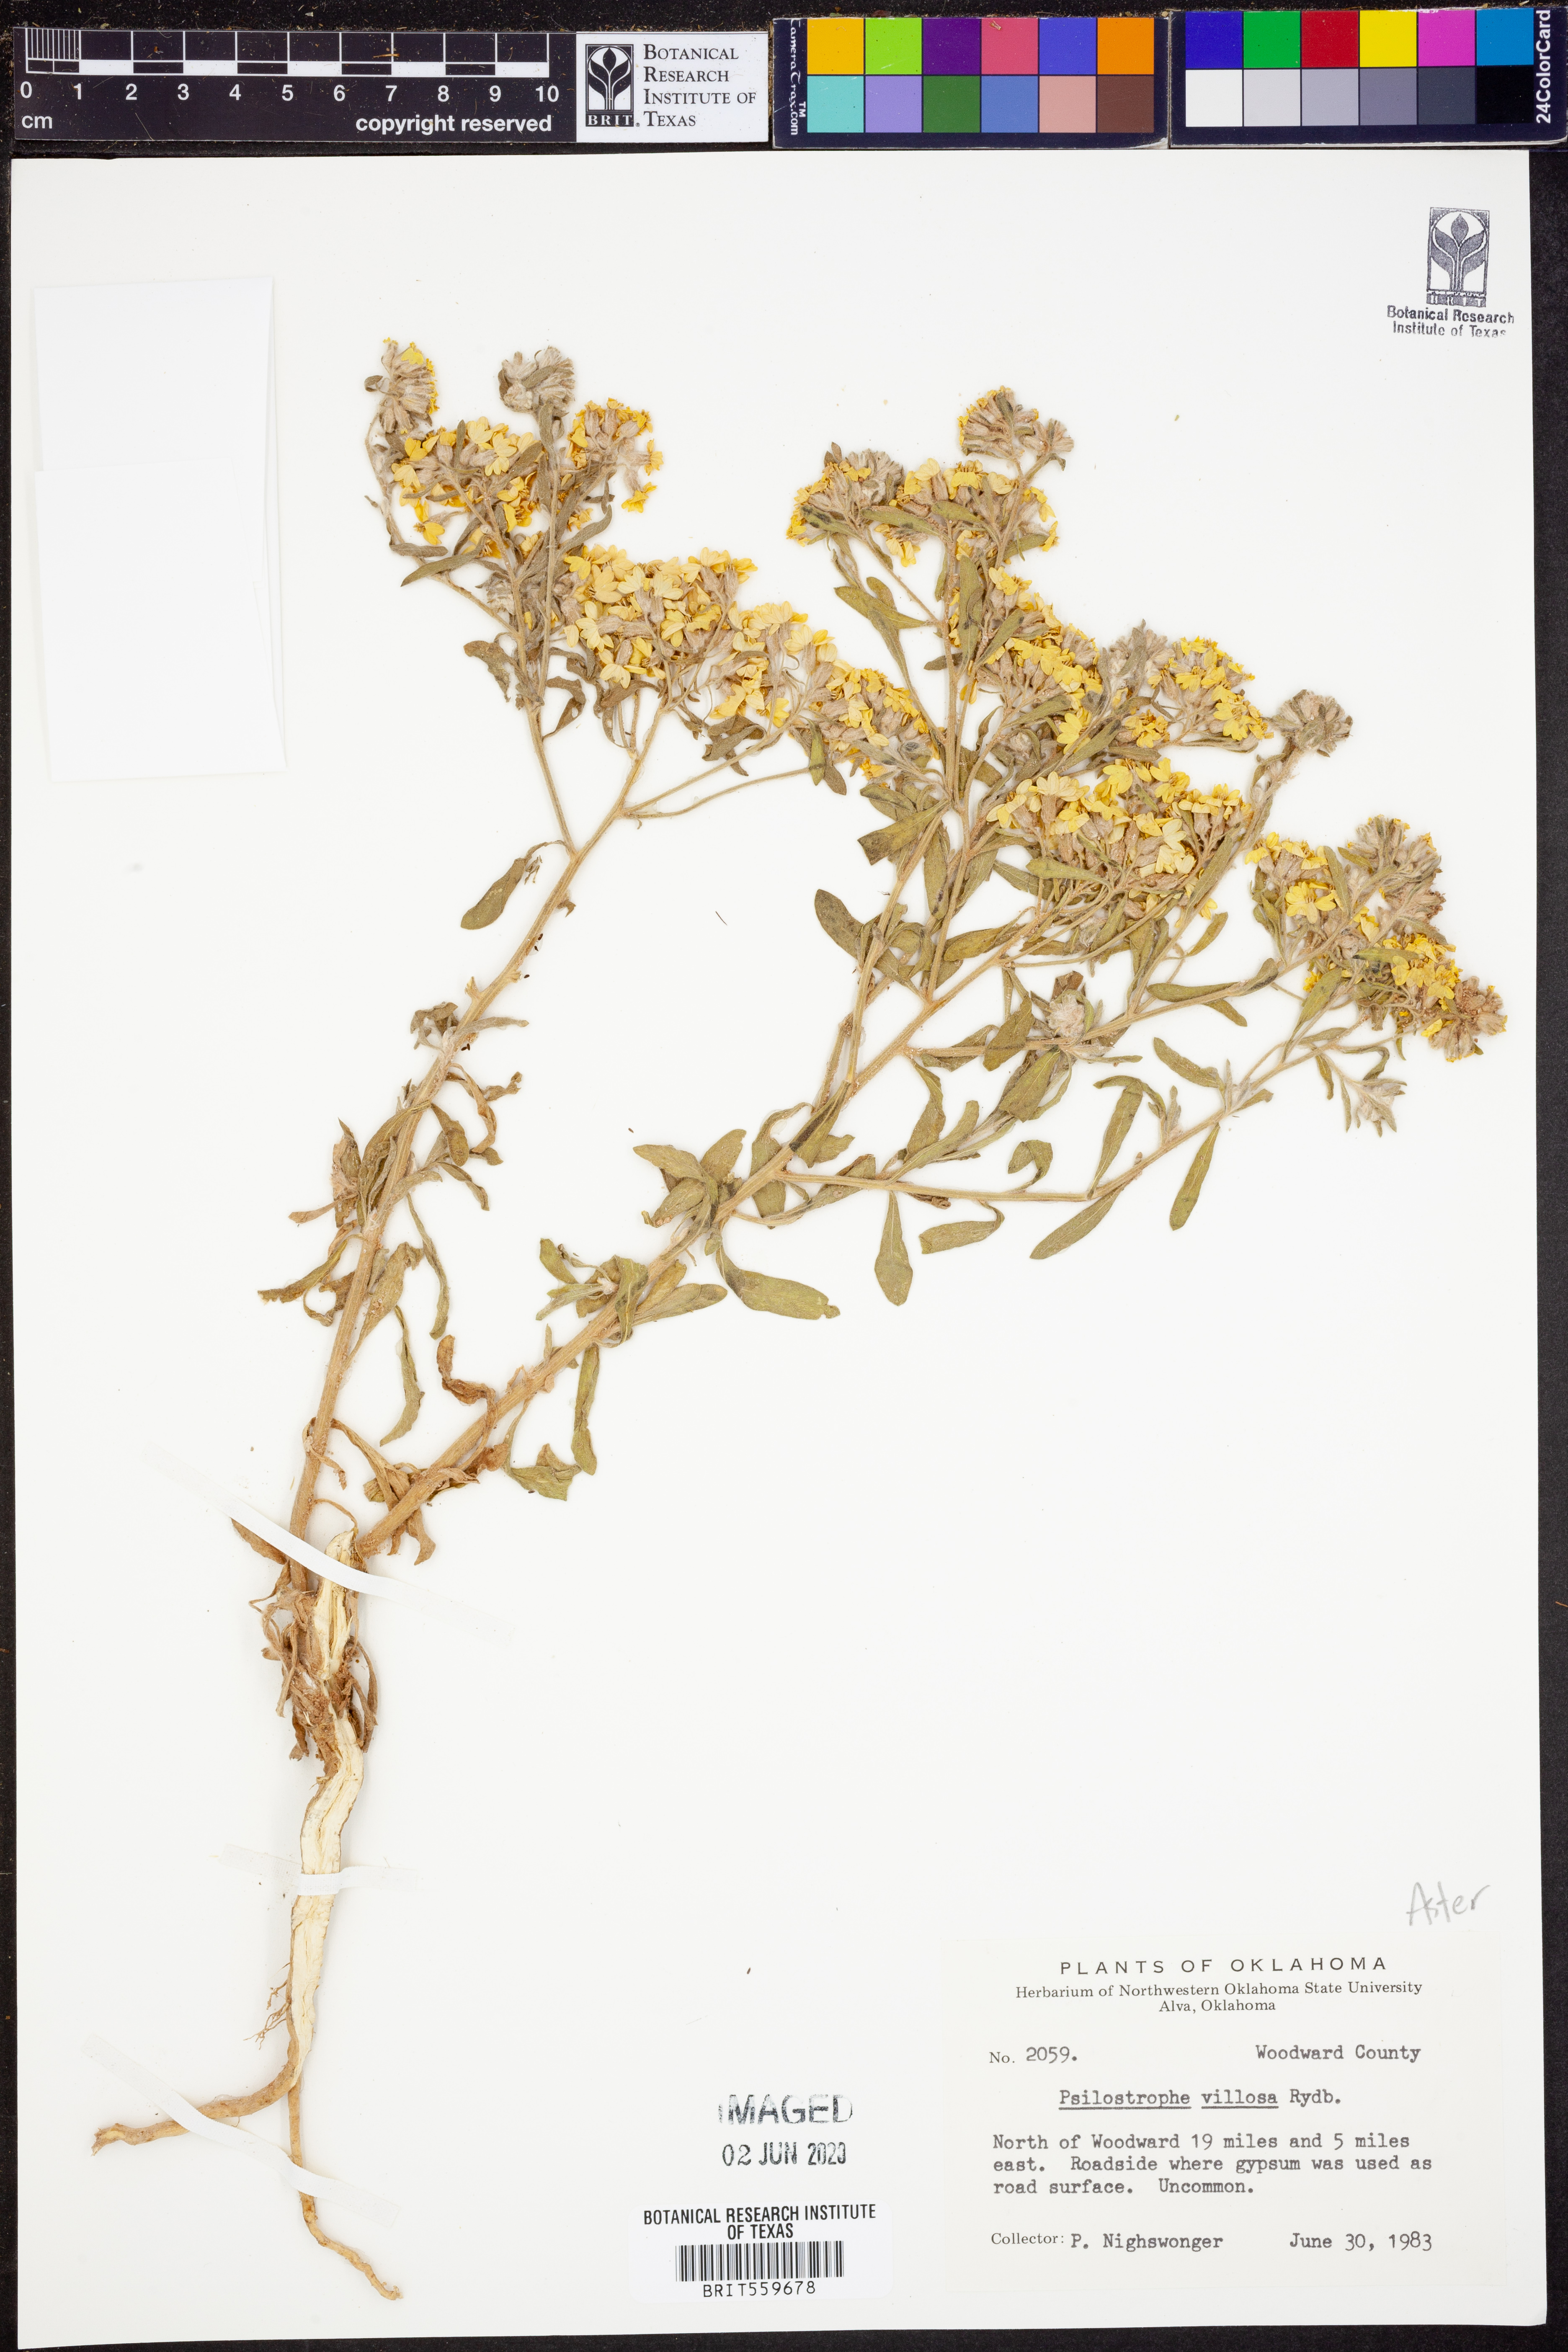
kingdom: Plantae
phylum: Tracheophyta
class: Magnoliopsida
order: Asterales
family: Asteraceae
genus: Psilostrophe
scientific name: Psilostrophe villosa
